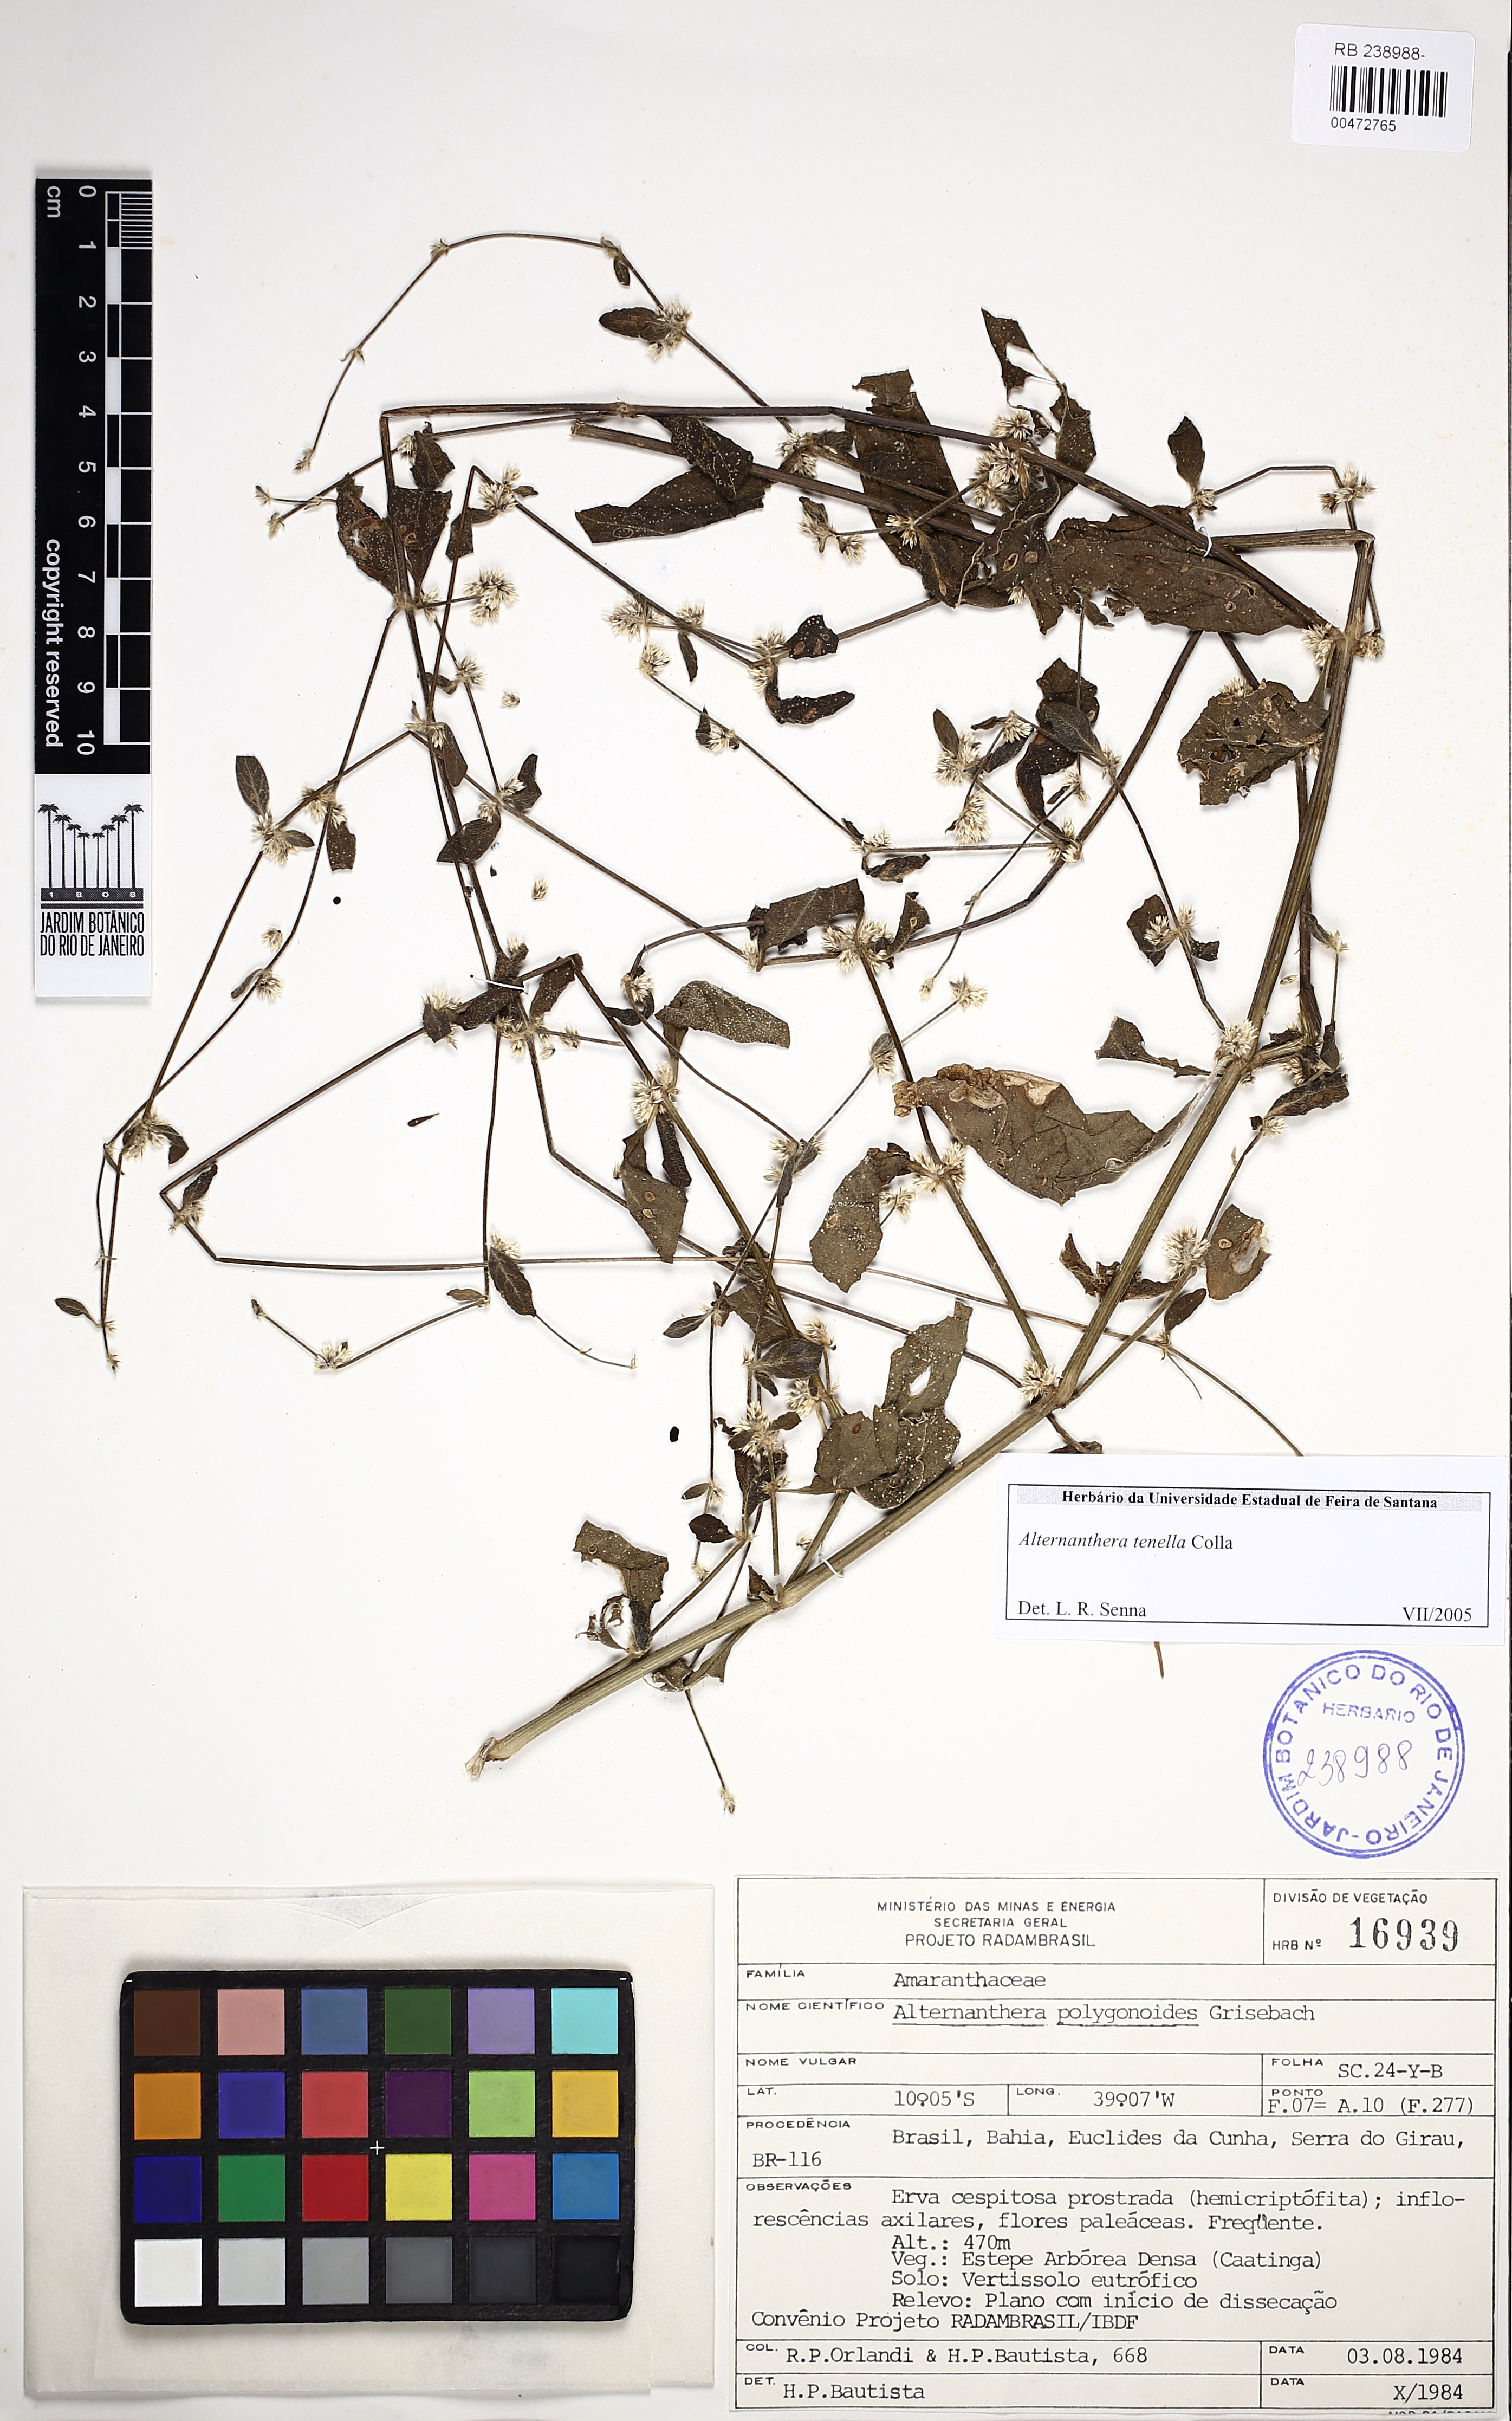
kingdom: Plantae
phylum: Tracheophyta
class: Magnoliopsida
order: Caryophyllales
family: Amaranthaceae
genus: Alternanthera
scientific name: Alternanthera sessilis
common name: Sessile joyweed
